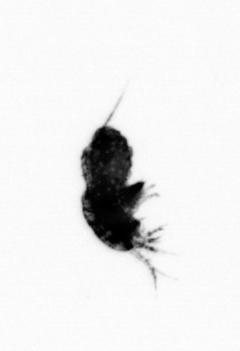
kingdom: Animalia
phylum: Arthropoda
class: Maxillopoda
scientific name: Maxillopoda
